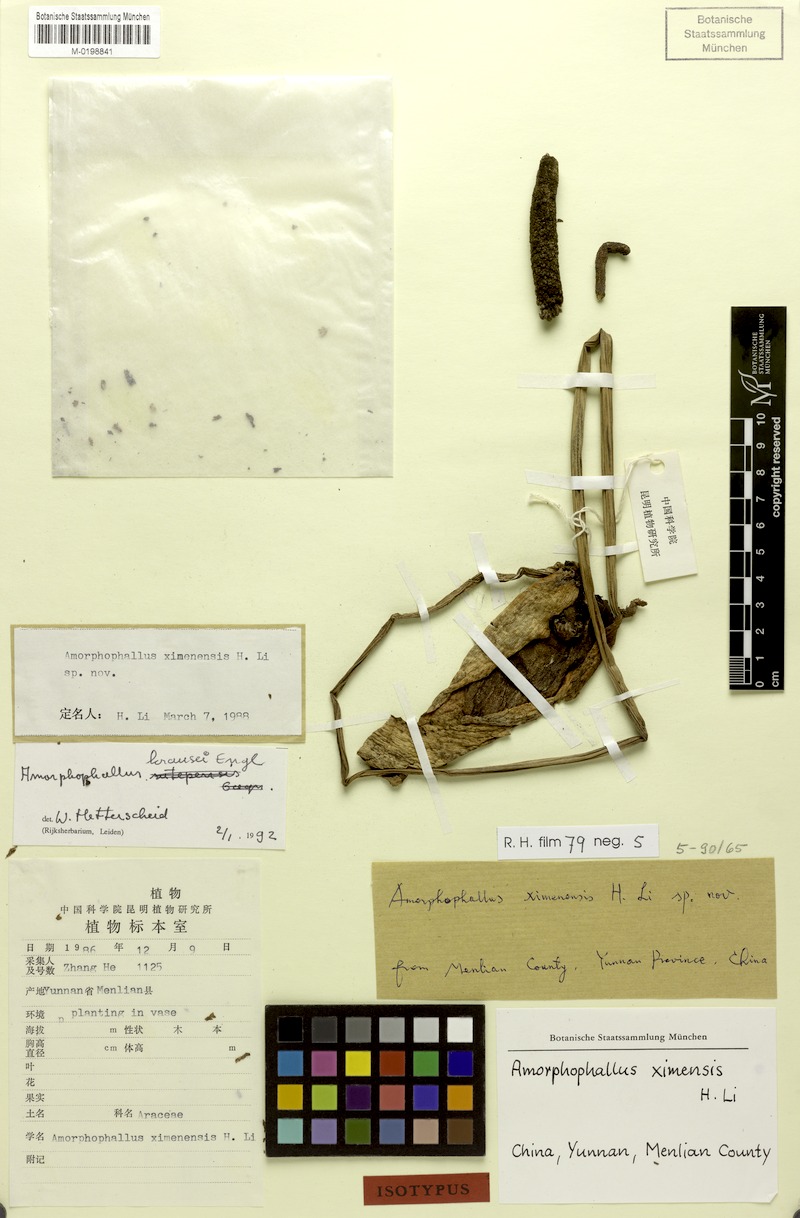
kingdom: Plantae
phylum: Tracheophyta
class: Liliopsida
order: Alismatales
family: Araceae
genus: Amorphophallus
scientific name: Amorphophallus krausei
